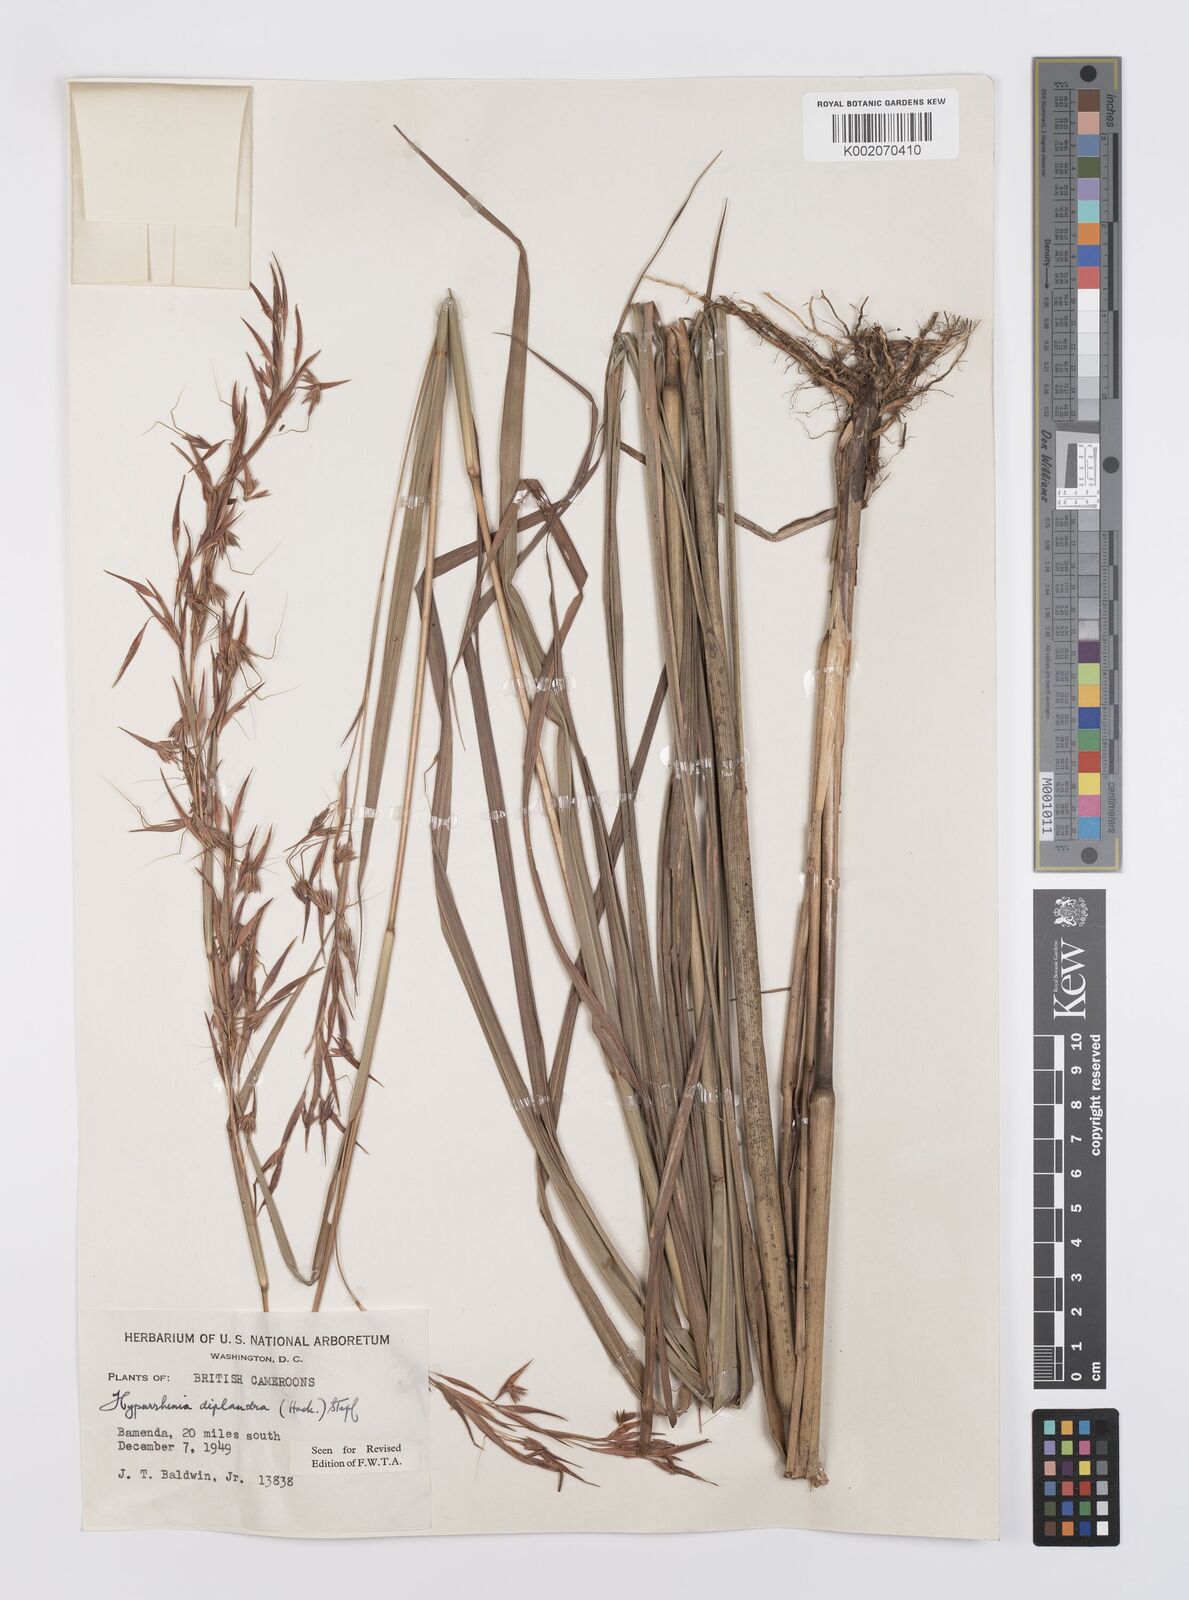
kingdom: Plantae
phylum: Tracheophyta
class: Liliopsida
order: Poales
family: Poaceae
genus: Hyparrhenia
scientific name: Hyparrhenia diplandra
